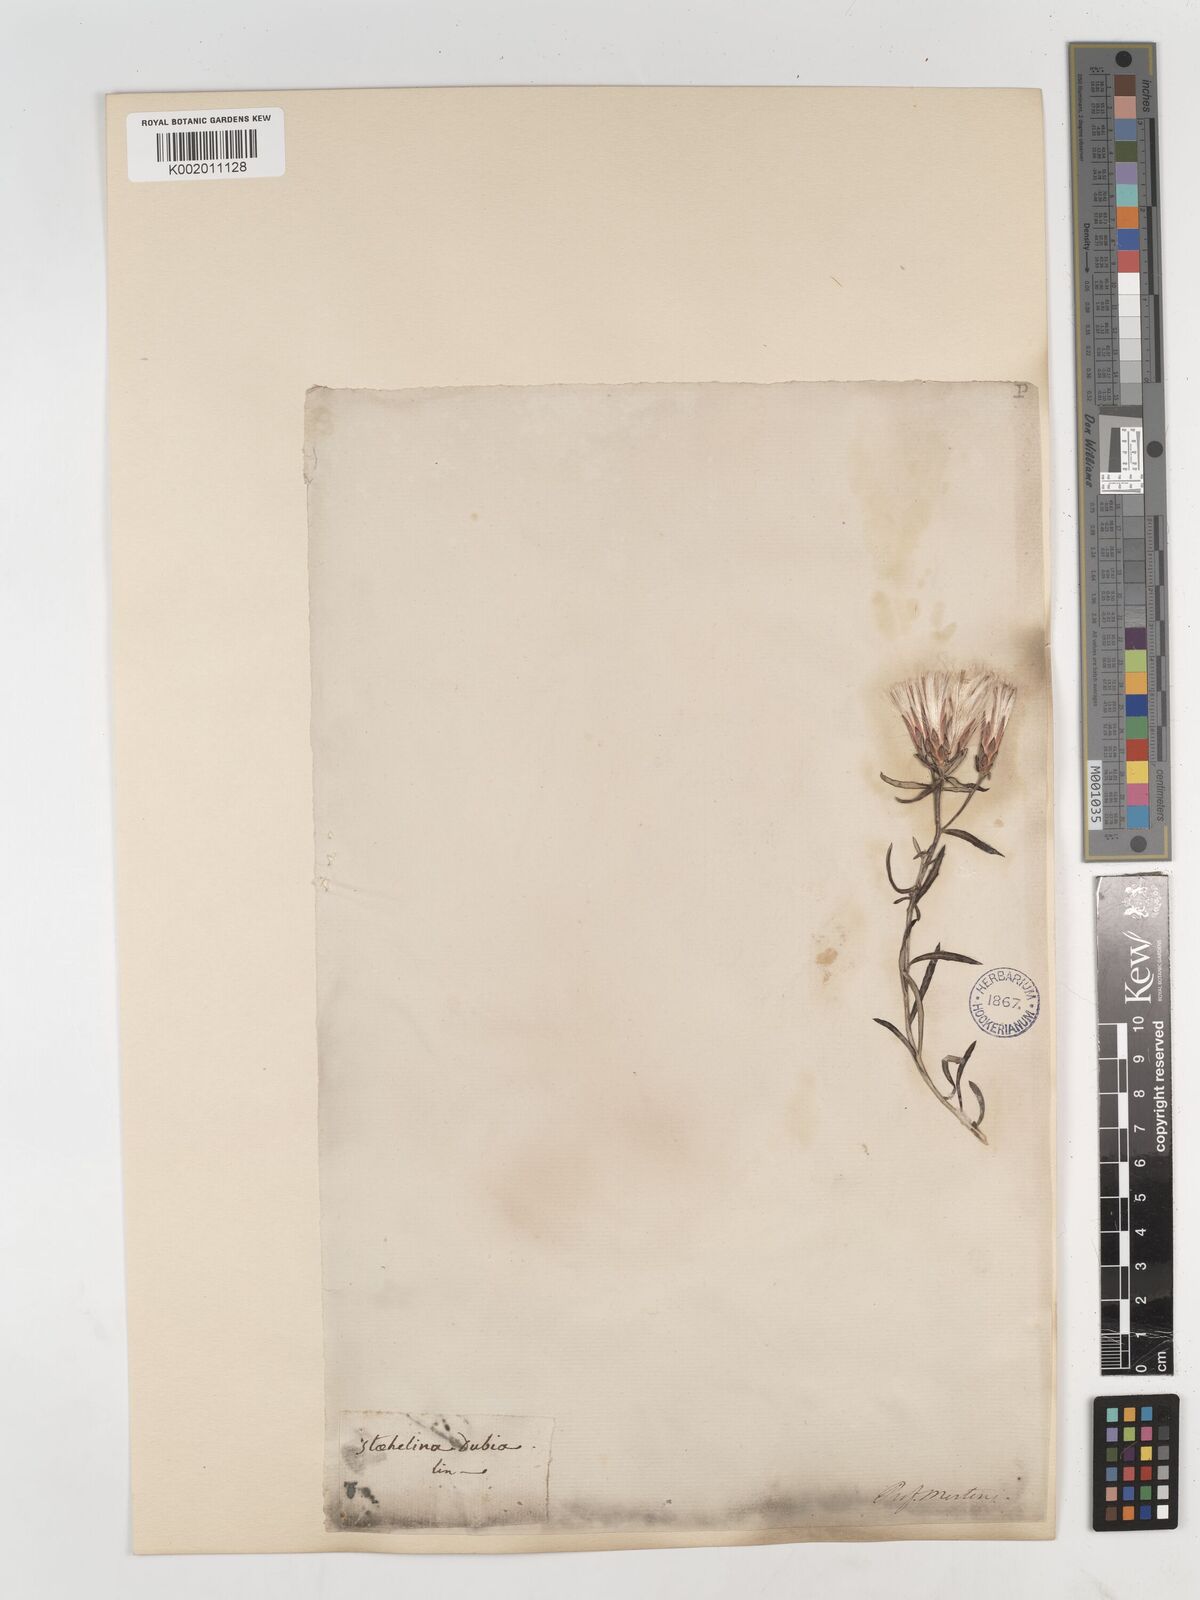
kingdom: Plantae
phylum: Tracheophyta
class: Magnoliopsida
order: Asterales
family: Asteraceae
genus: Staehelina
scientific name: Staehelina dubia
